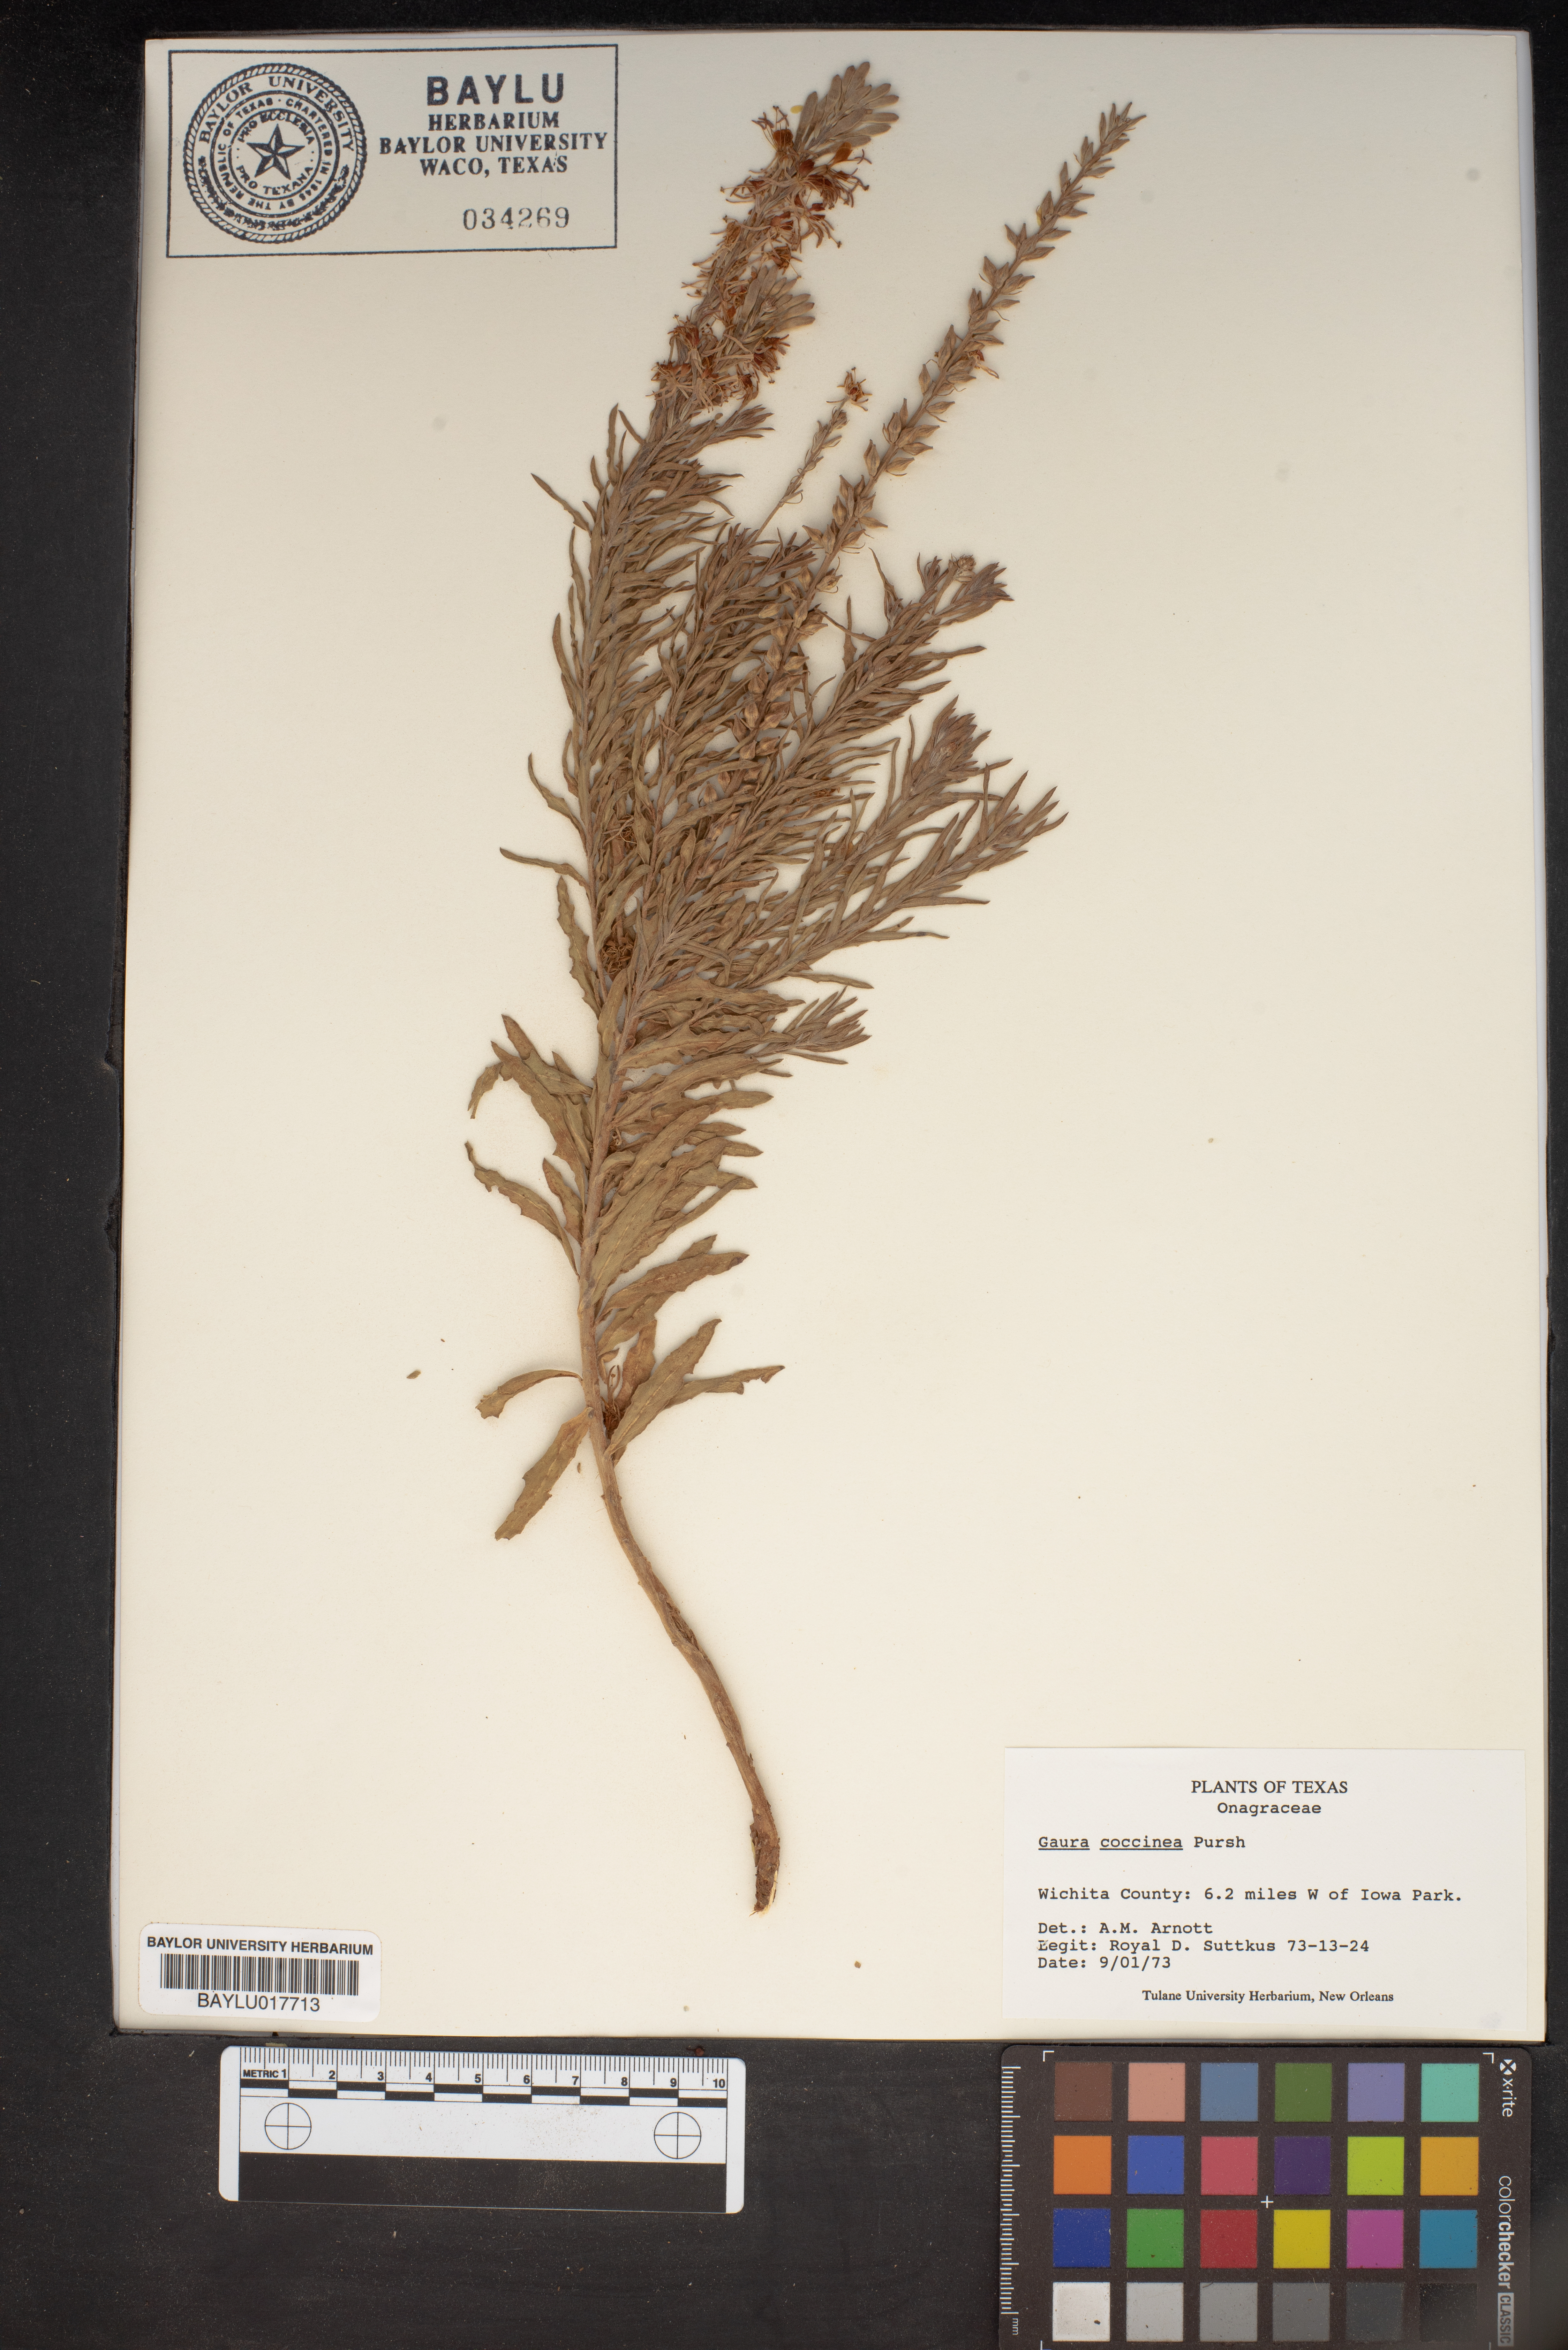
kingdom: Plantae
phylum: Tracheophyta
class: Magnoliopsida
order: Myrtales
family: Onagraceae
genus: Oenothera
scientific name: Oenothera suffrutescens
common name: Scarlet beeblossom
